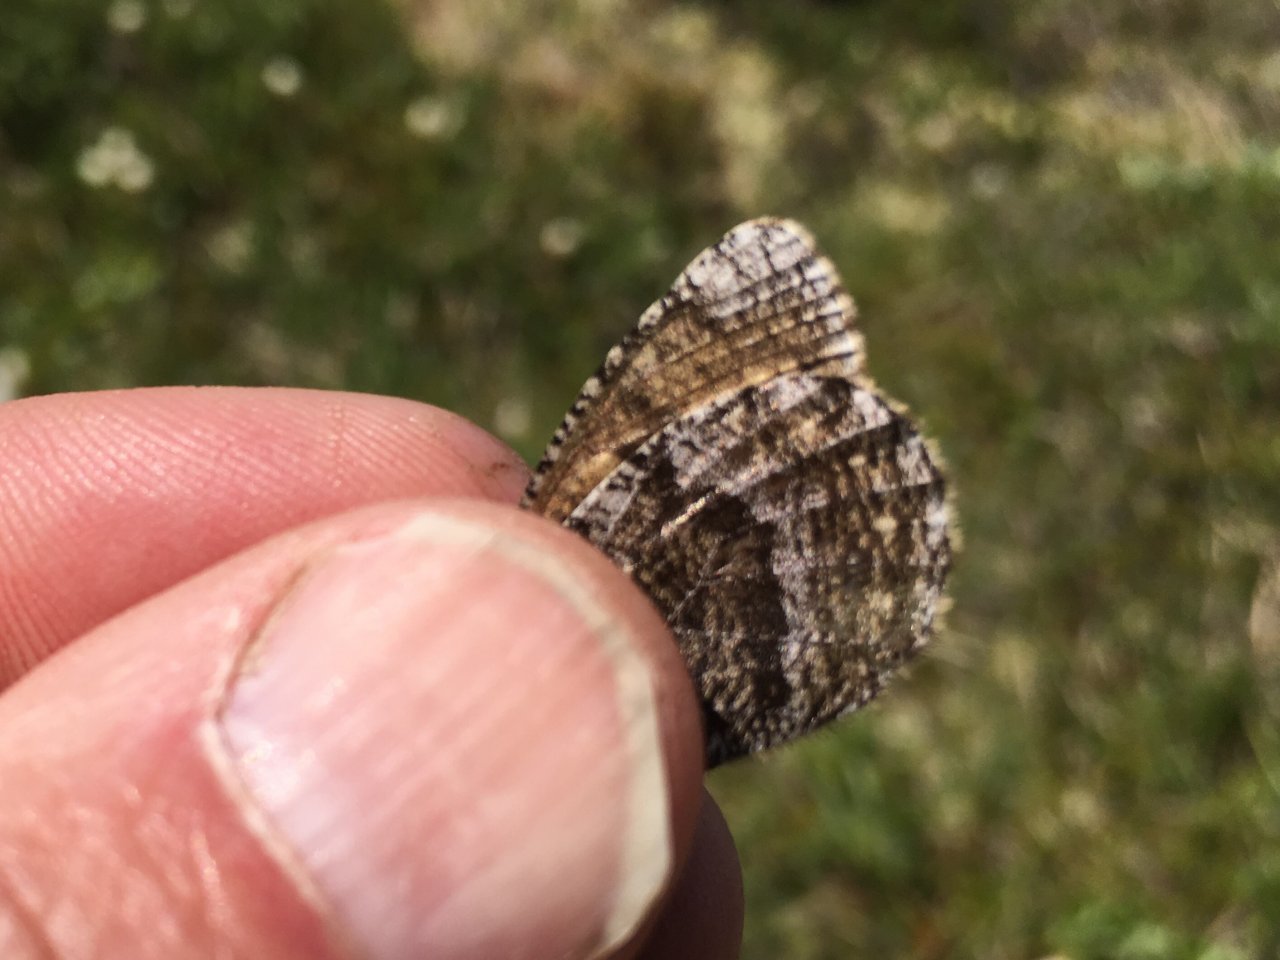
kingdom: Animalia
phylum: Arthropoda
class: Insecta
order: Lepidoptera
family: Nymphalidae
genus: Oeneis
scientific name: Oeneis bore
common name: White-veined Arctic
